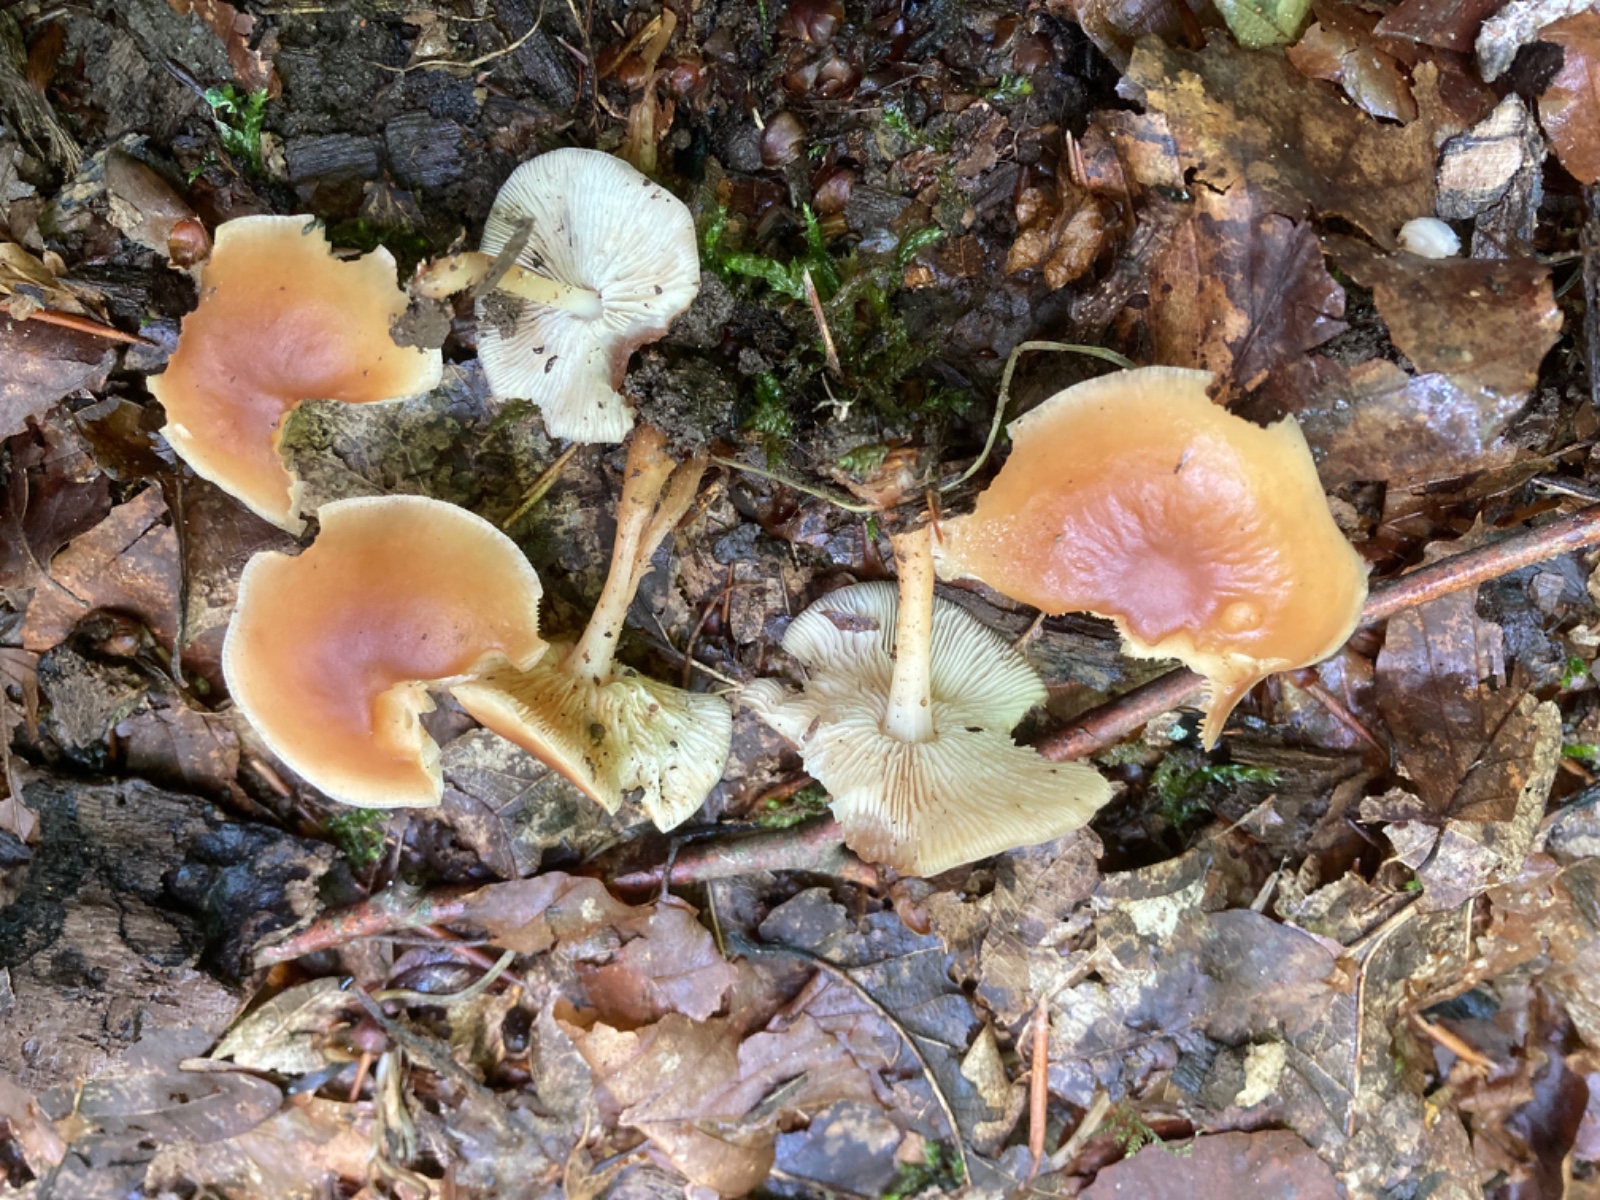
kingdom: Fungi
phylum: Basidiomycota
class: Agaricomycetes
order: Agaricales
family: Omphalotaceae
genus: Gymnopus
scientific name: Gymnopus
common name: fladhat
